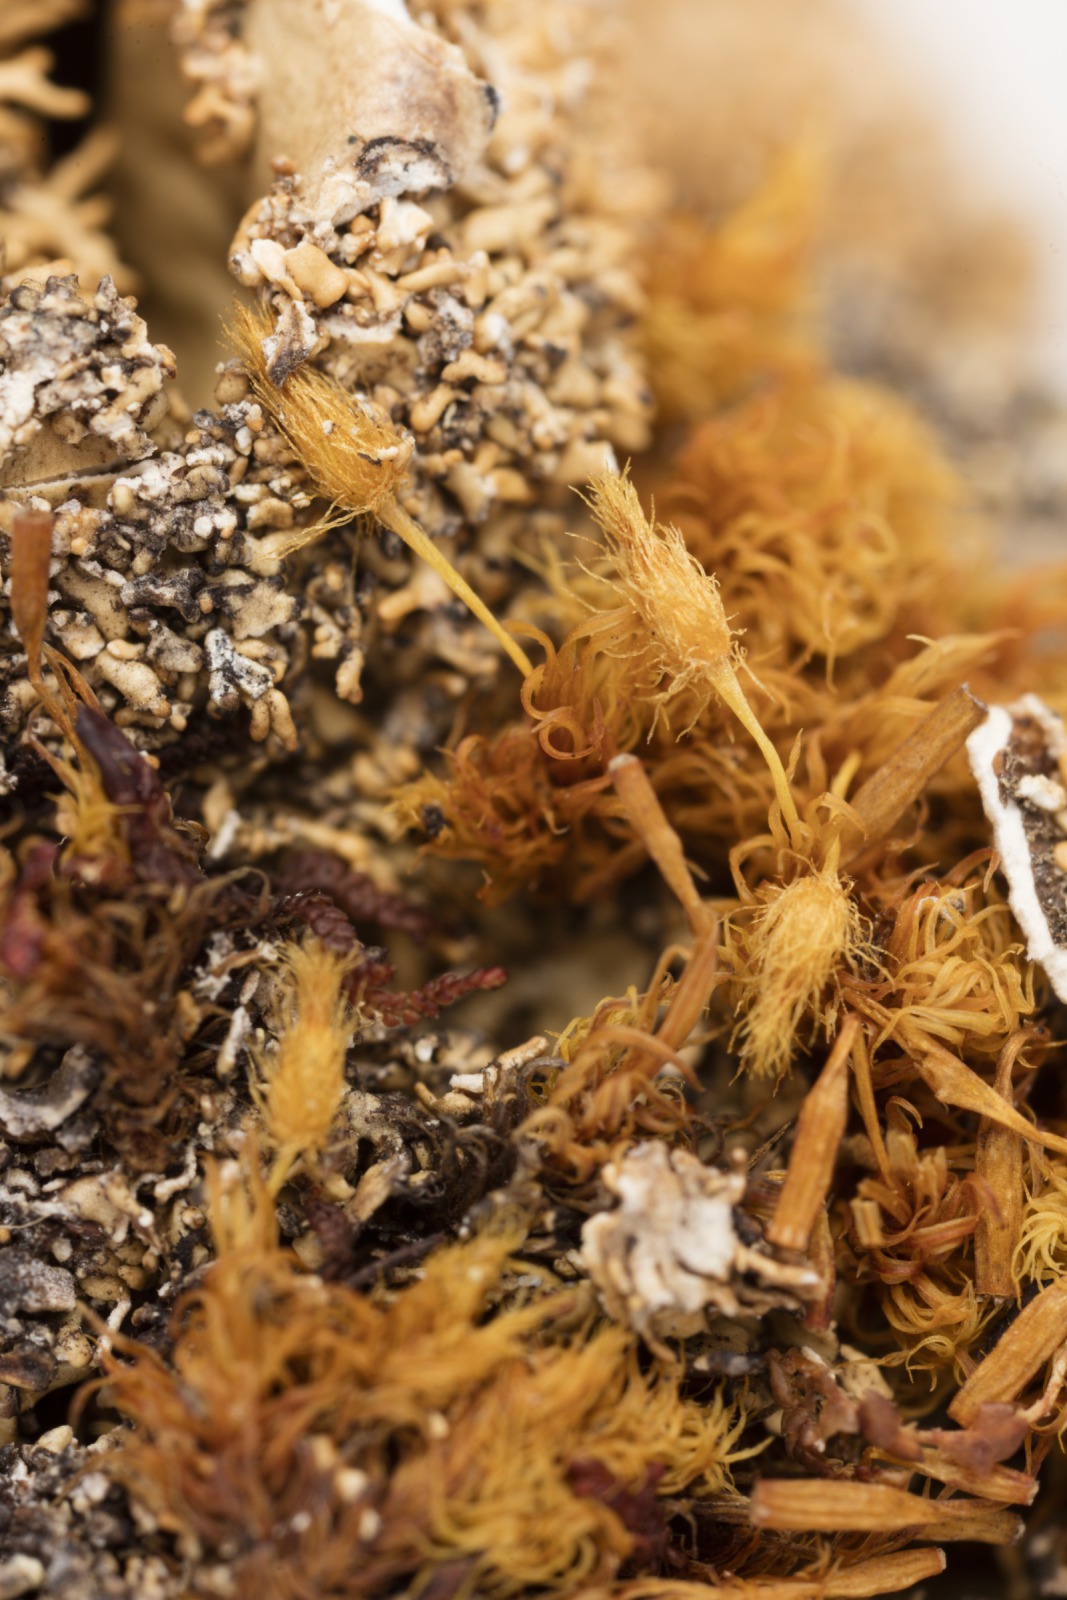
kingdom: Fungi
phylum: Ascomycota
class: Lecanoromycetes
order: Peltigerales
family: Lobariaceae
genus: Pseudocyphellaria
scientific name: Pseudocyphellaria chloroleuca
